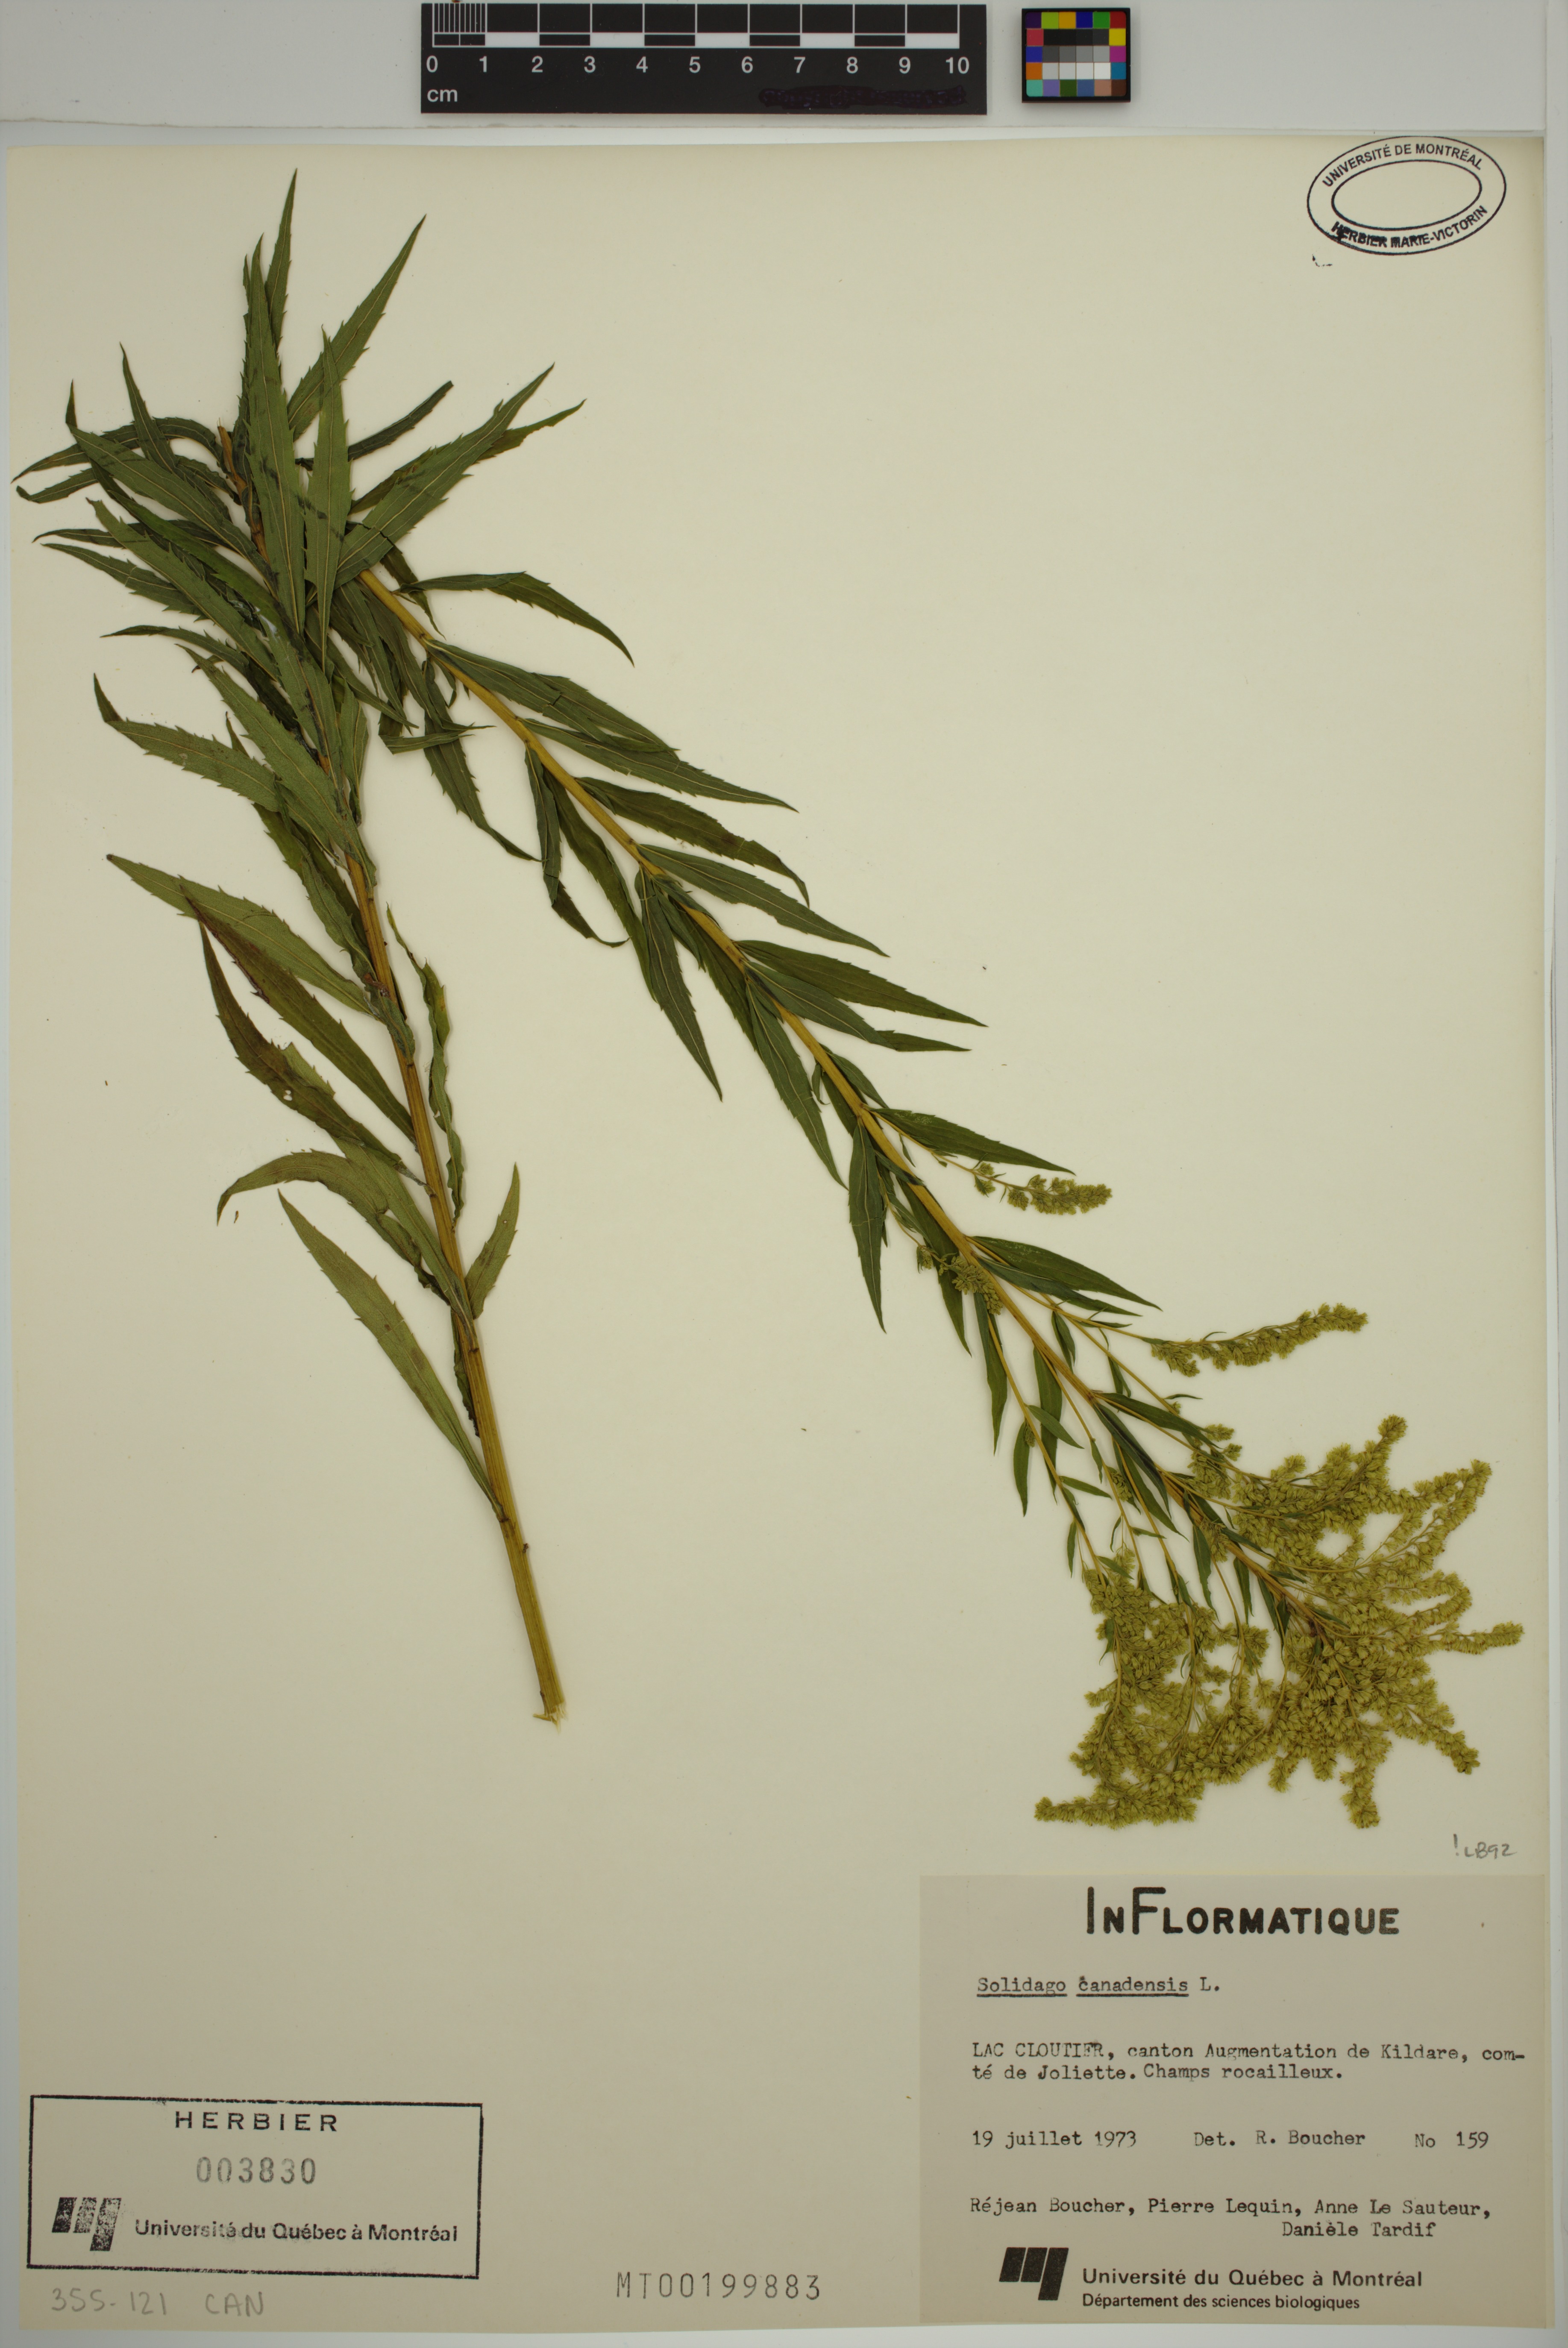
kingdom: Plantae
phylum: Tracheophyta
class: Magnoliopsida
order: Asterales
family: Asteraceae
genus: Solidago
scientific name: Solidago canadensis
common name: Canada goldenrod
